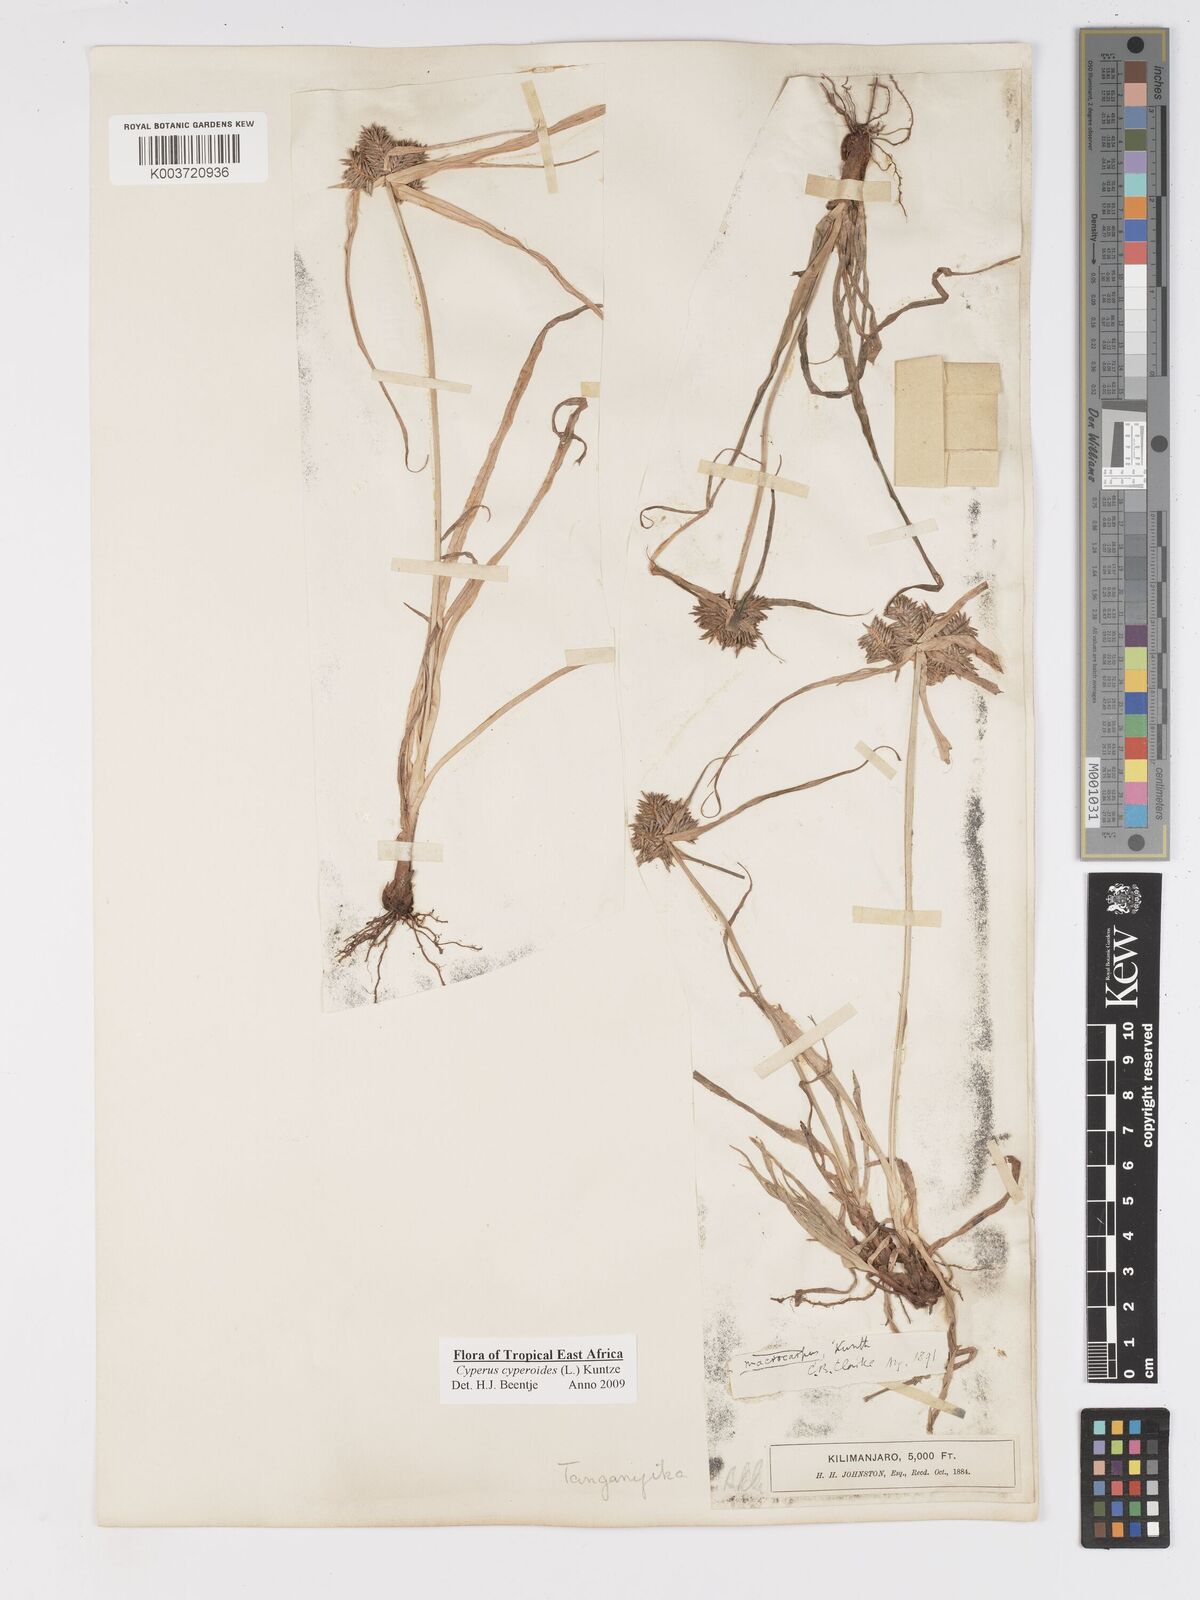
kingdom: Plantae
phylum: Tracheophyta
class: Liliopsida
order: Poales
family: Cyperaceae
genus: Cyperus
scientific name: Cyperus macrocarpus
